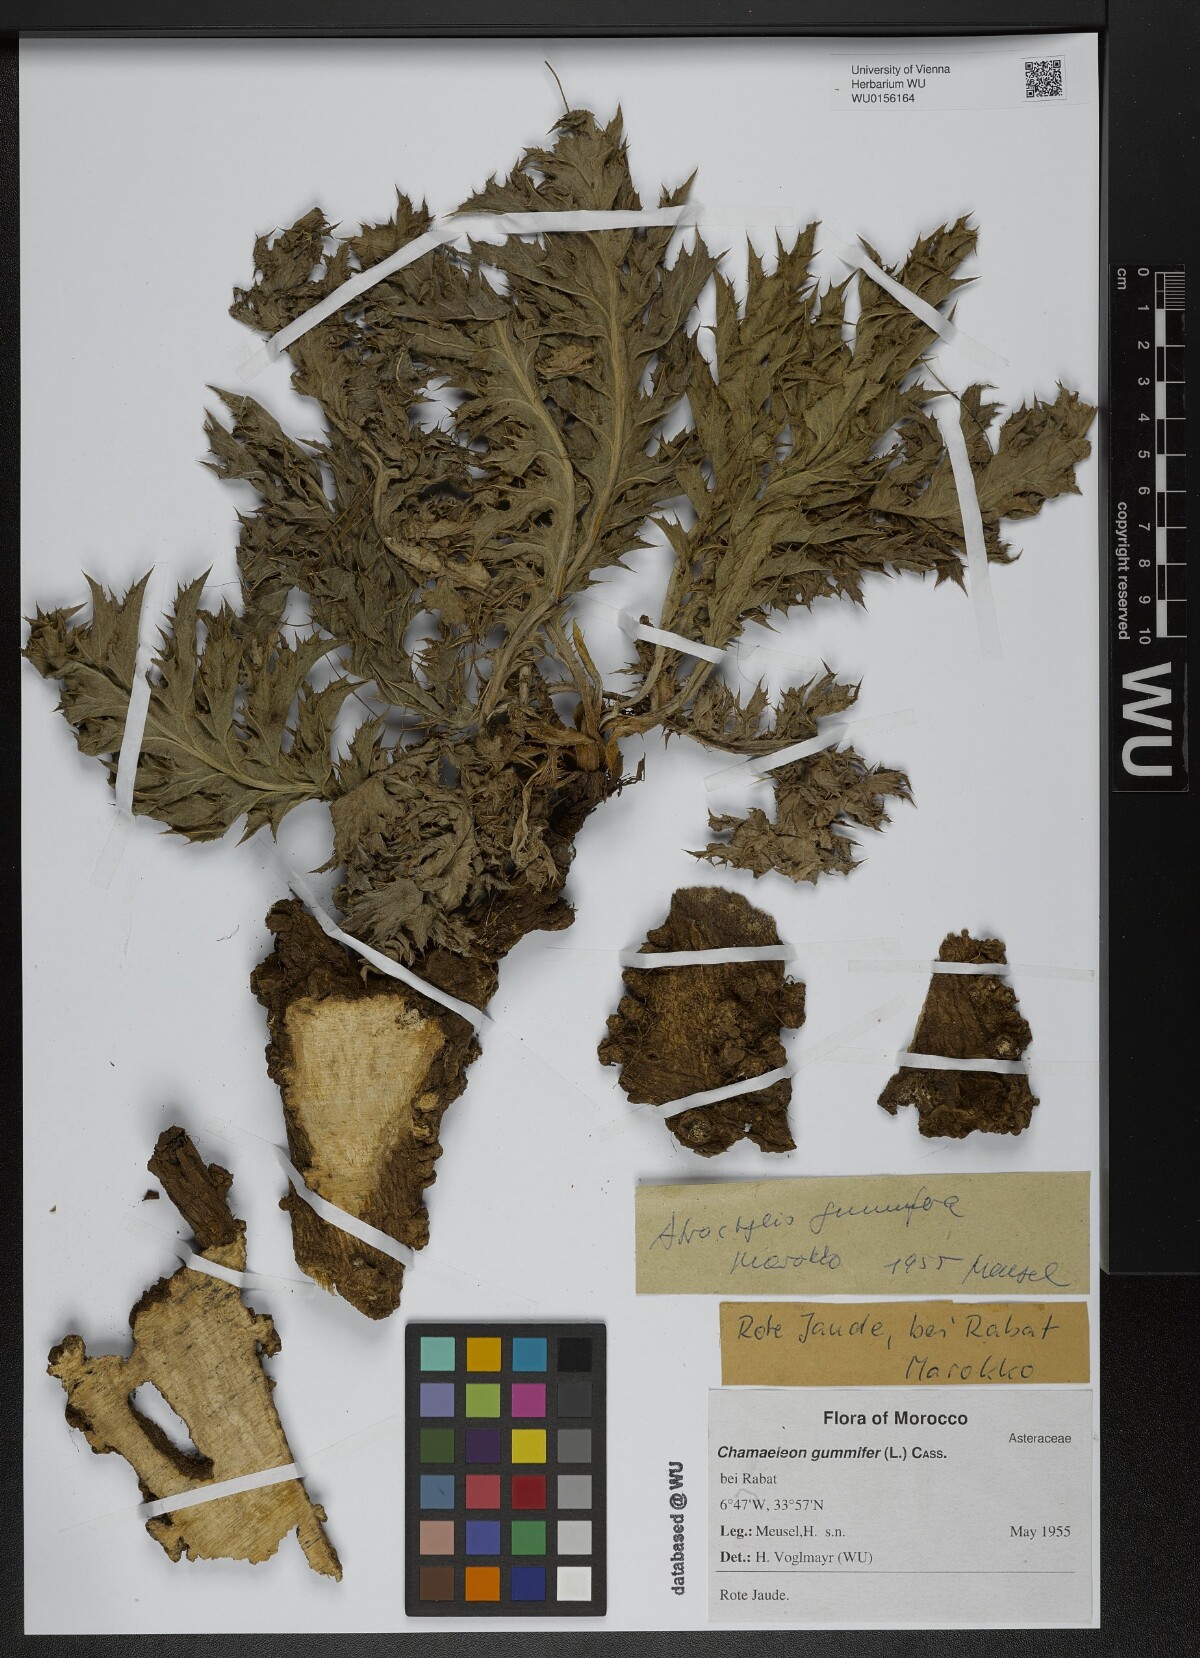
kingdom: Plantae
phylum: Tracheophyta
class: Magnoliopsida
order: Asterales
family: Asteraceae
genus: Chamaeleon
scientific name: Chamaeleon gummifer
